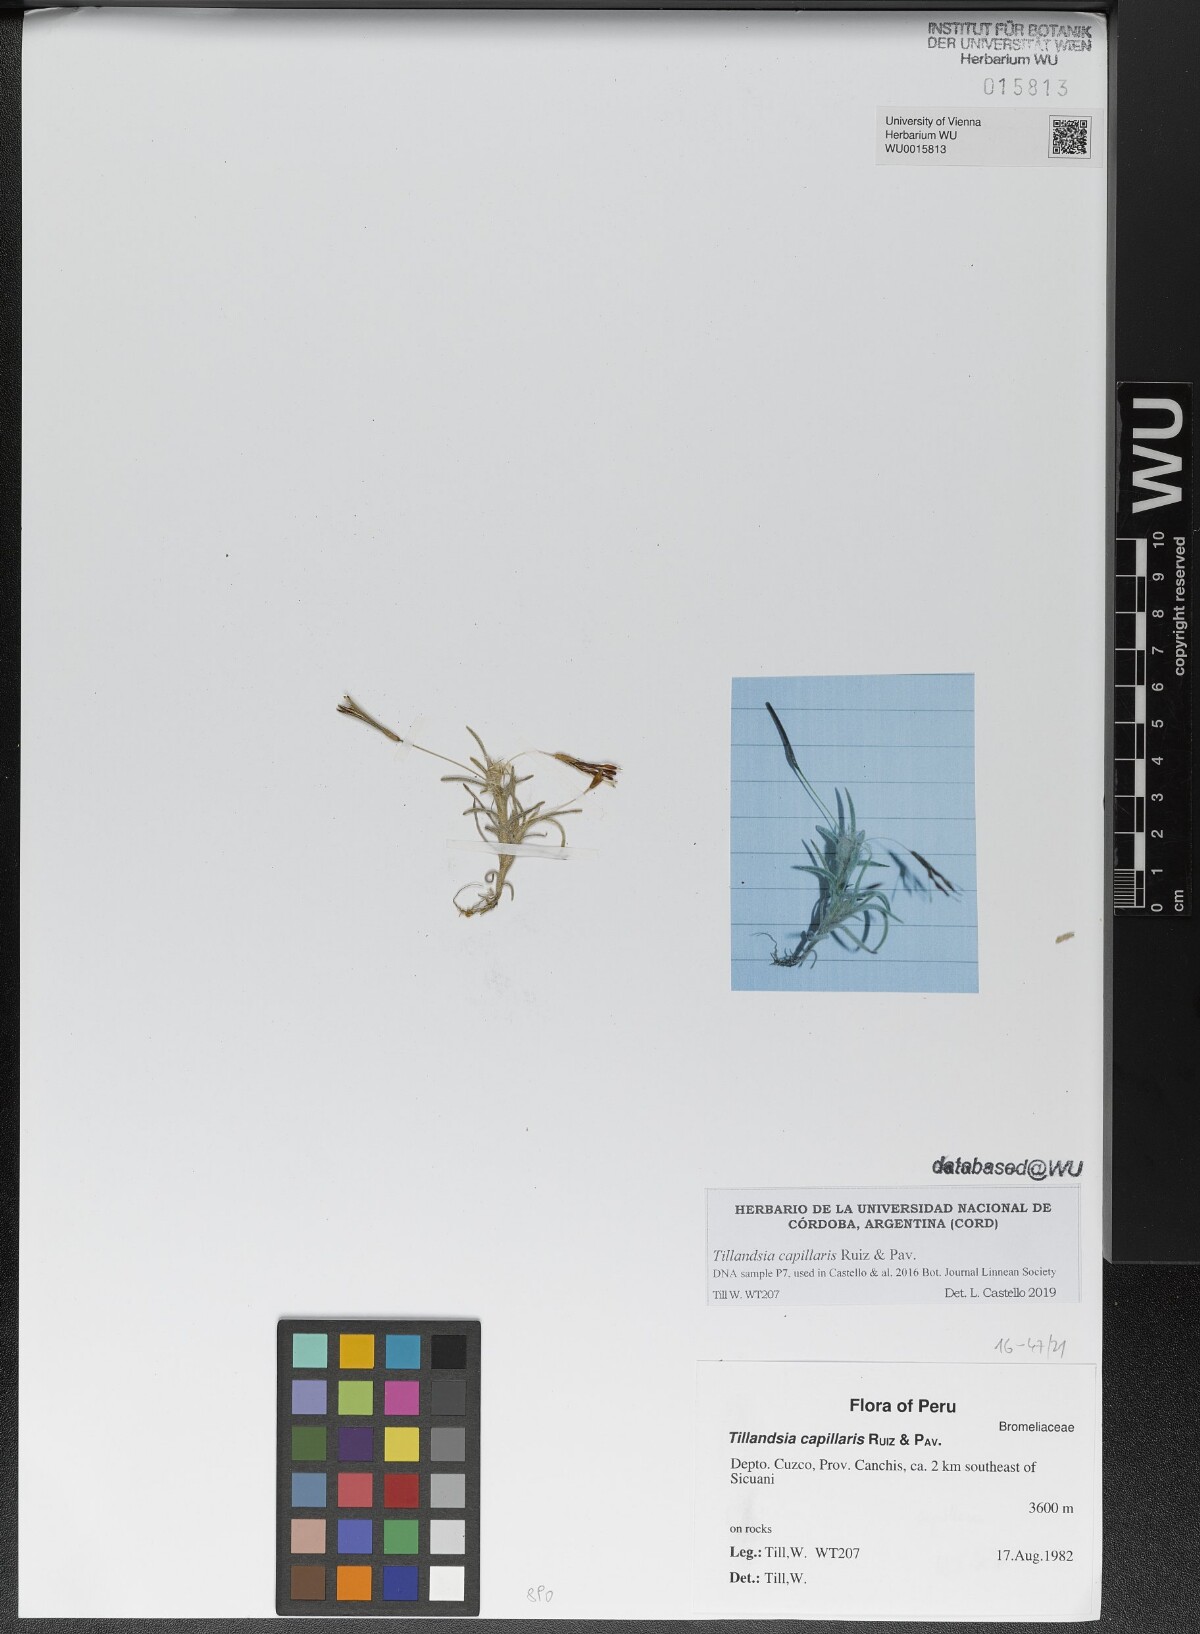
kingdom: Plantae
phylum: Tracheophyta
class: Liliopsida
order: Poales
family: Bromeliaceae
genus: Tillandsia
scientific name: Tillandsia capillaris
